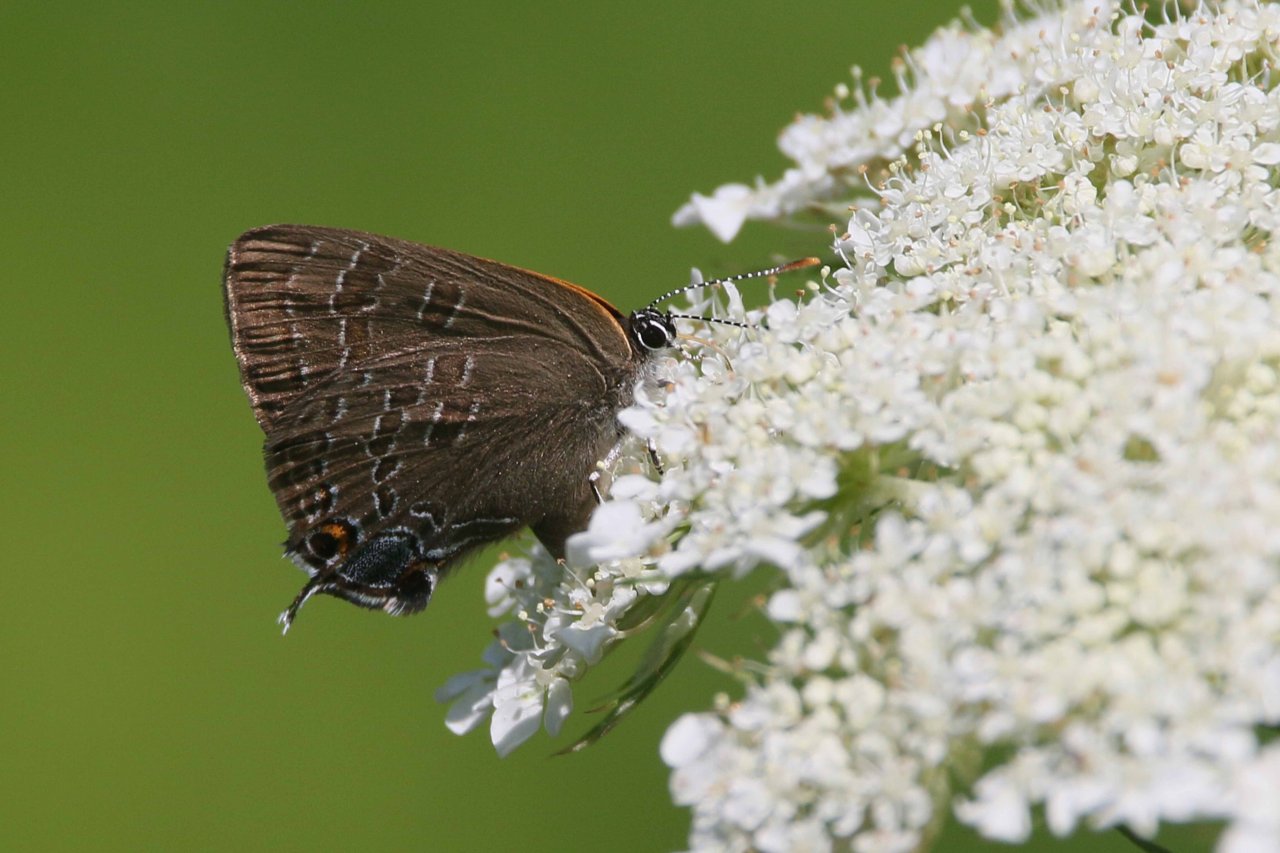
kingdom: Animalia
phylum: Arthropoda
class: Insecta
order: Lepidoptera
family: Lycaenidae
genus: Strymon
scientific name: Strymon caryaevorus
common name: Hickory Hairstreak
